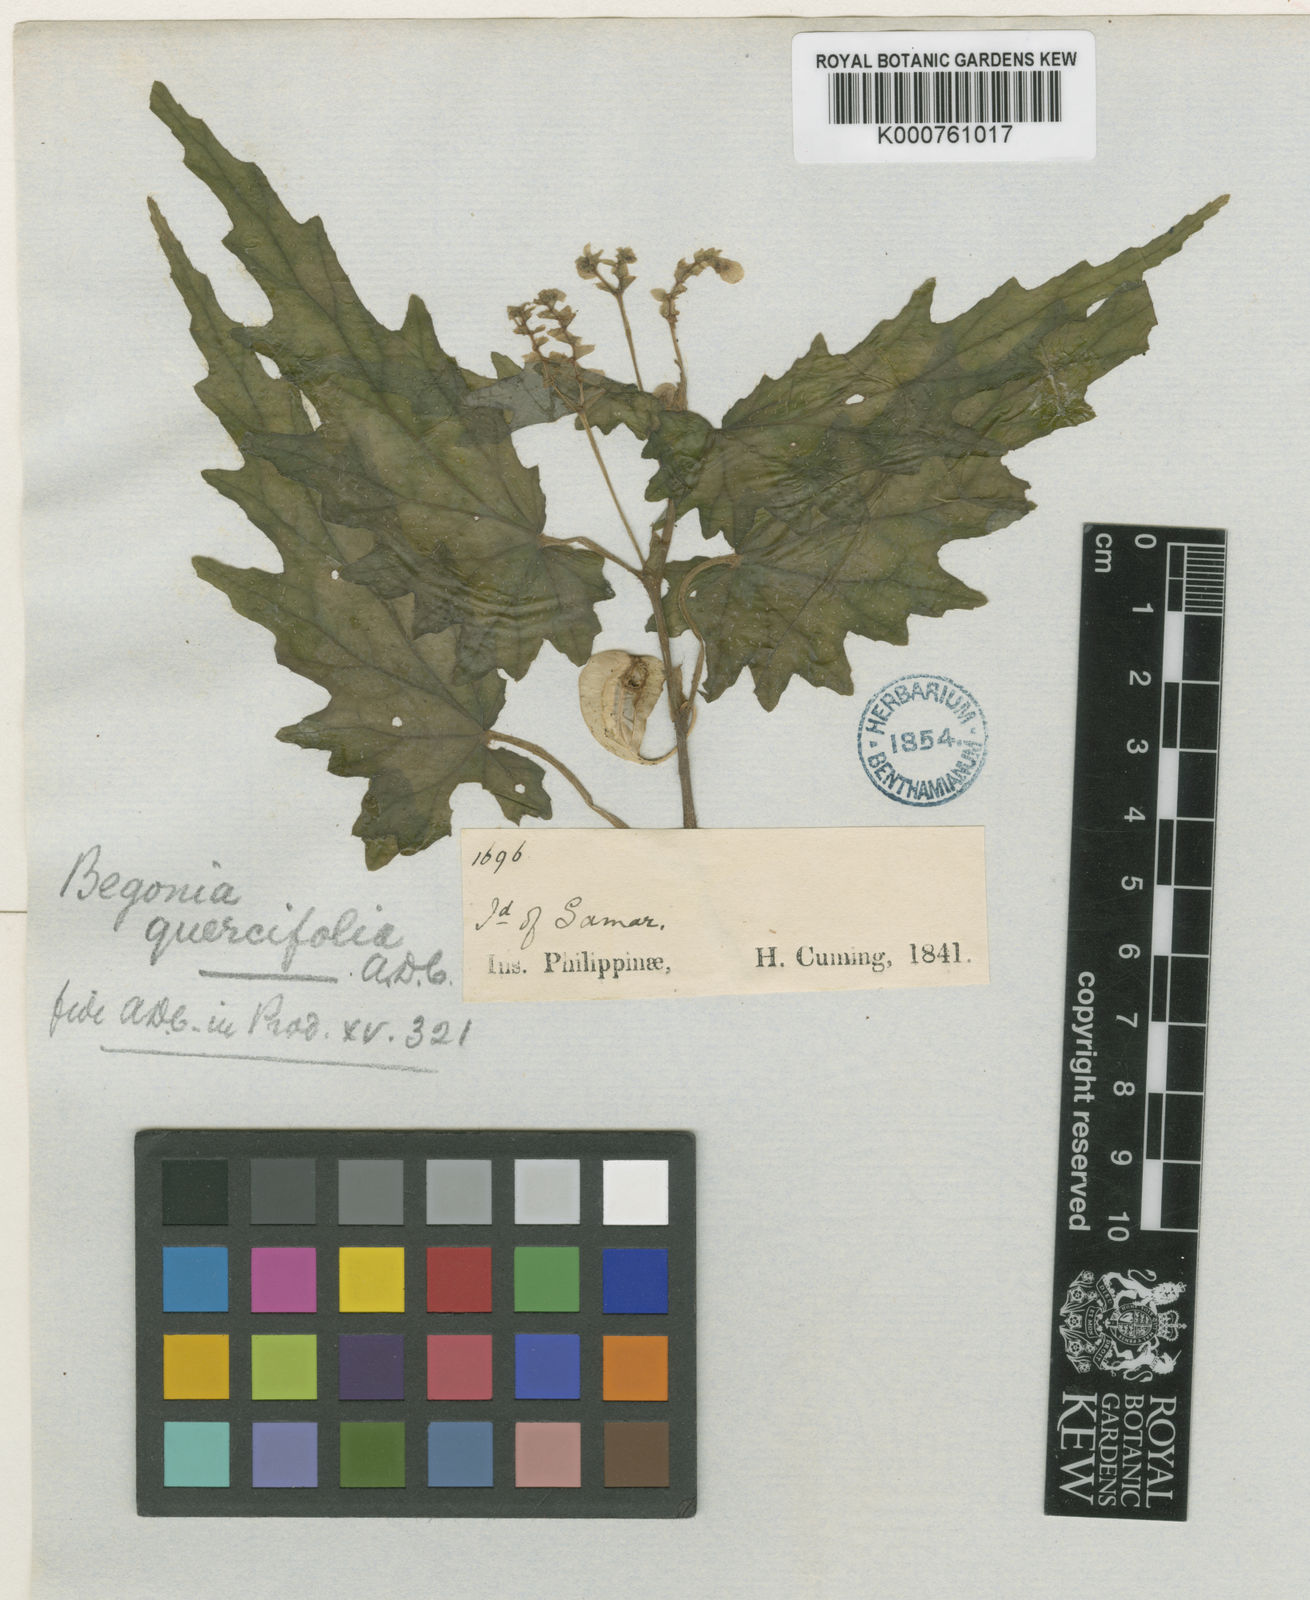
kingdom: Plantae
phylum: Tracheophyta
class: Magnoliopsida
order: Cucurbitales
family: Begoniaceae
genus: Begonia
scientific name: Begonia quercifolia
